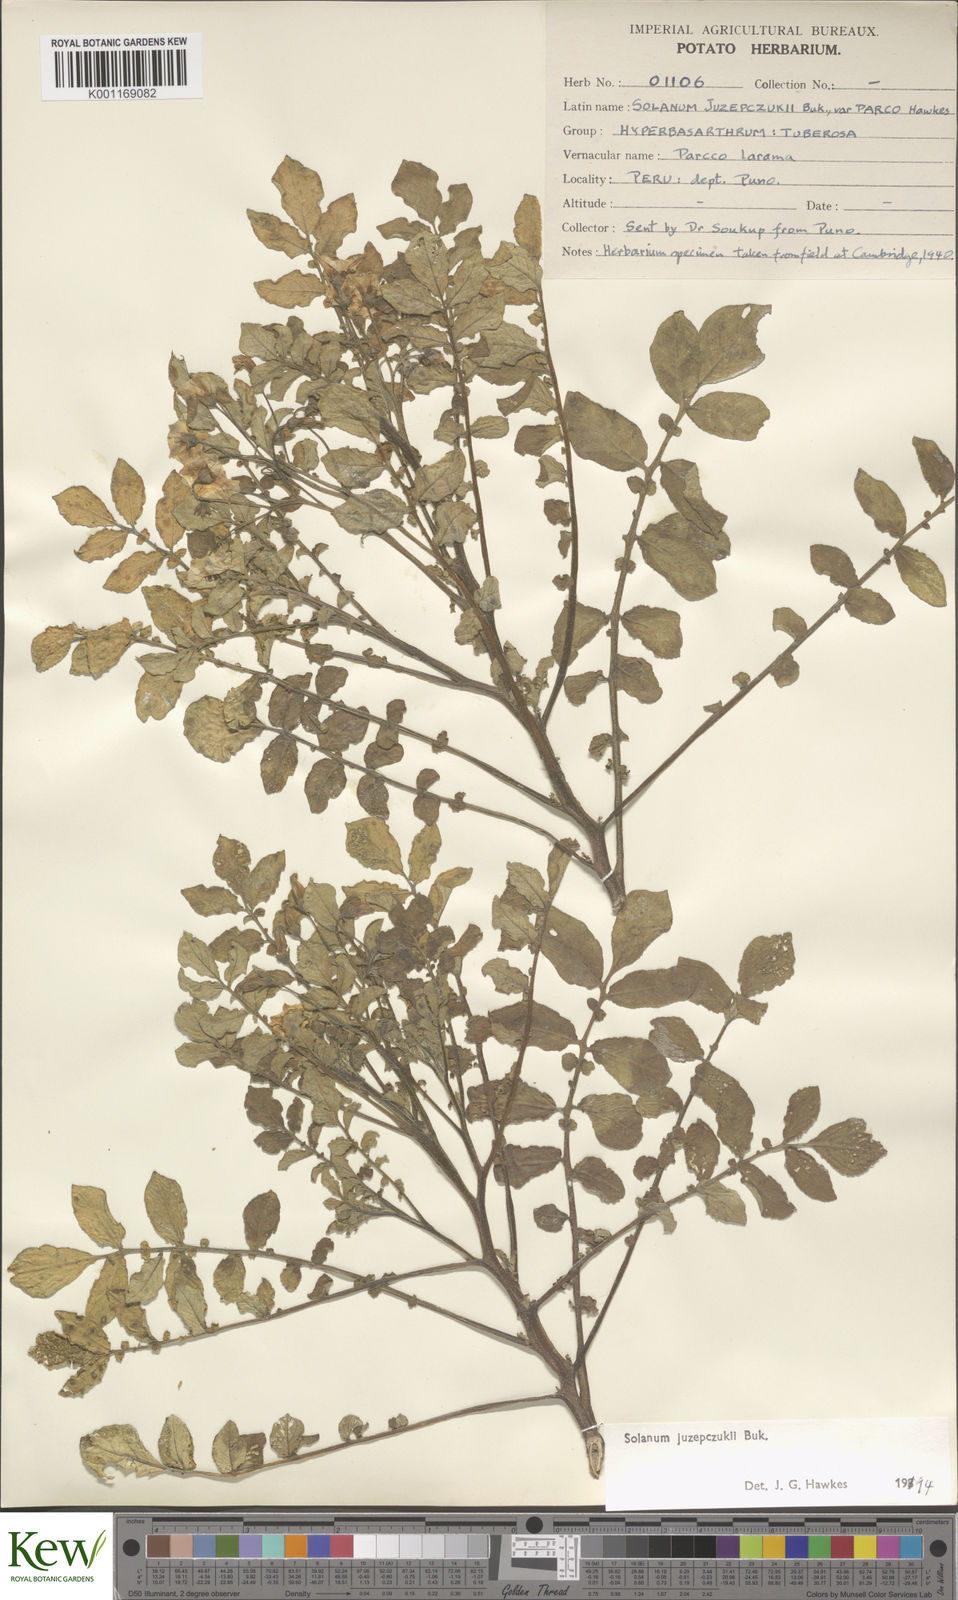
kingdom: Plantae
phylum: Tracheophyta
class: Magnoliopsida
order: Solanales
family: Solanaceae
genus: Solanum
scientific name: Solanum juzepczukii
